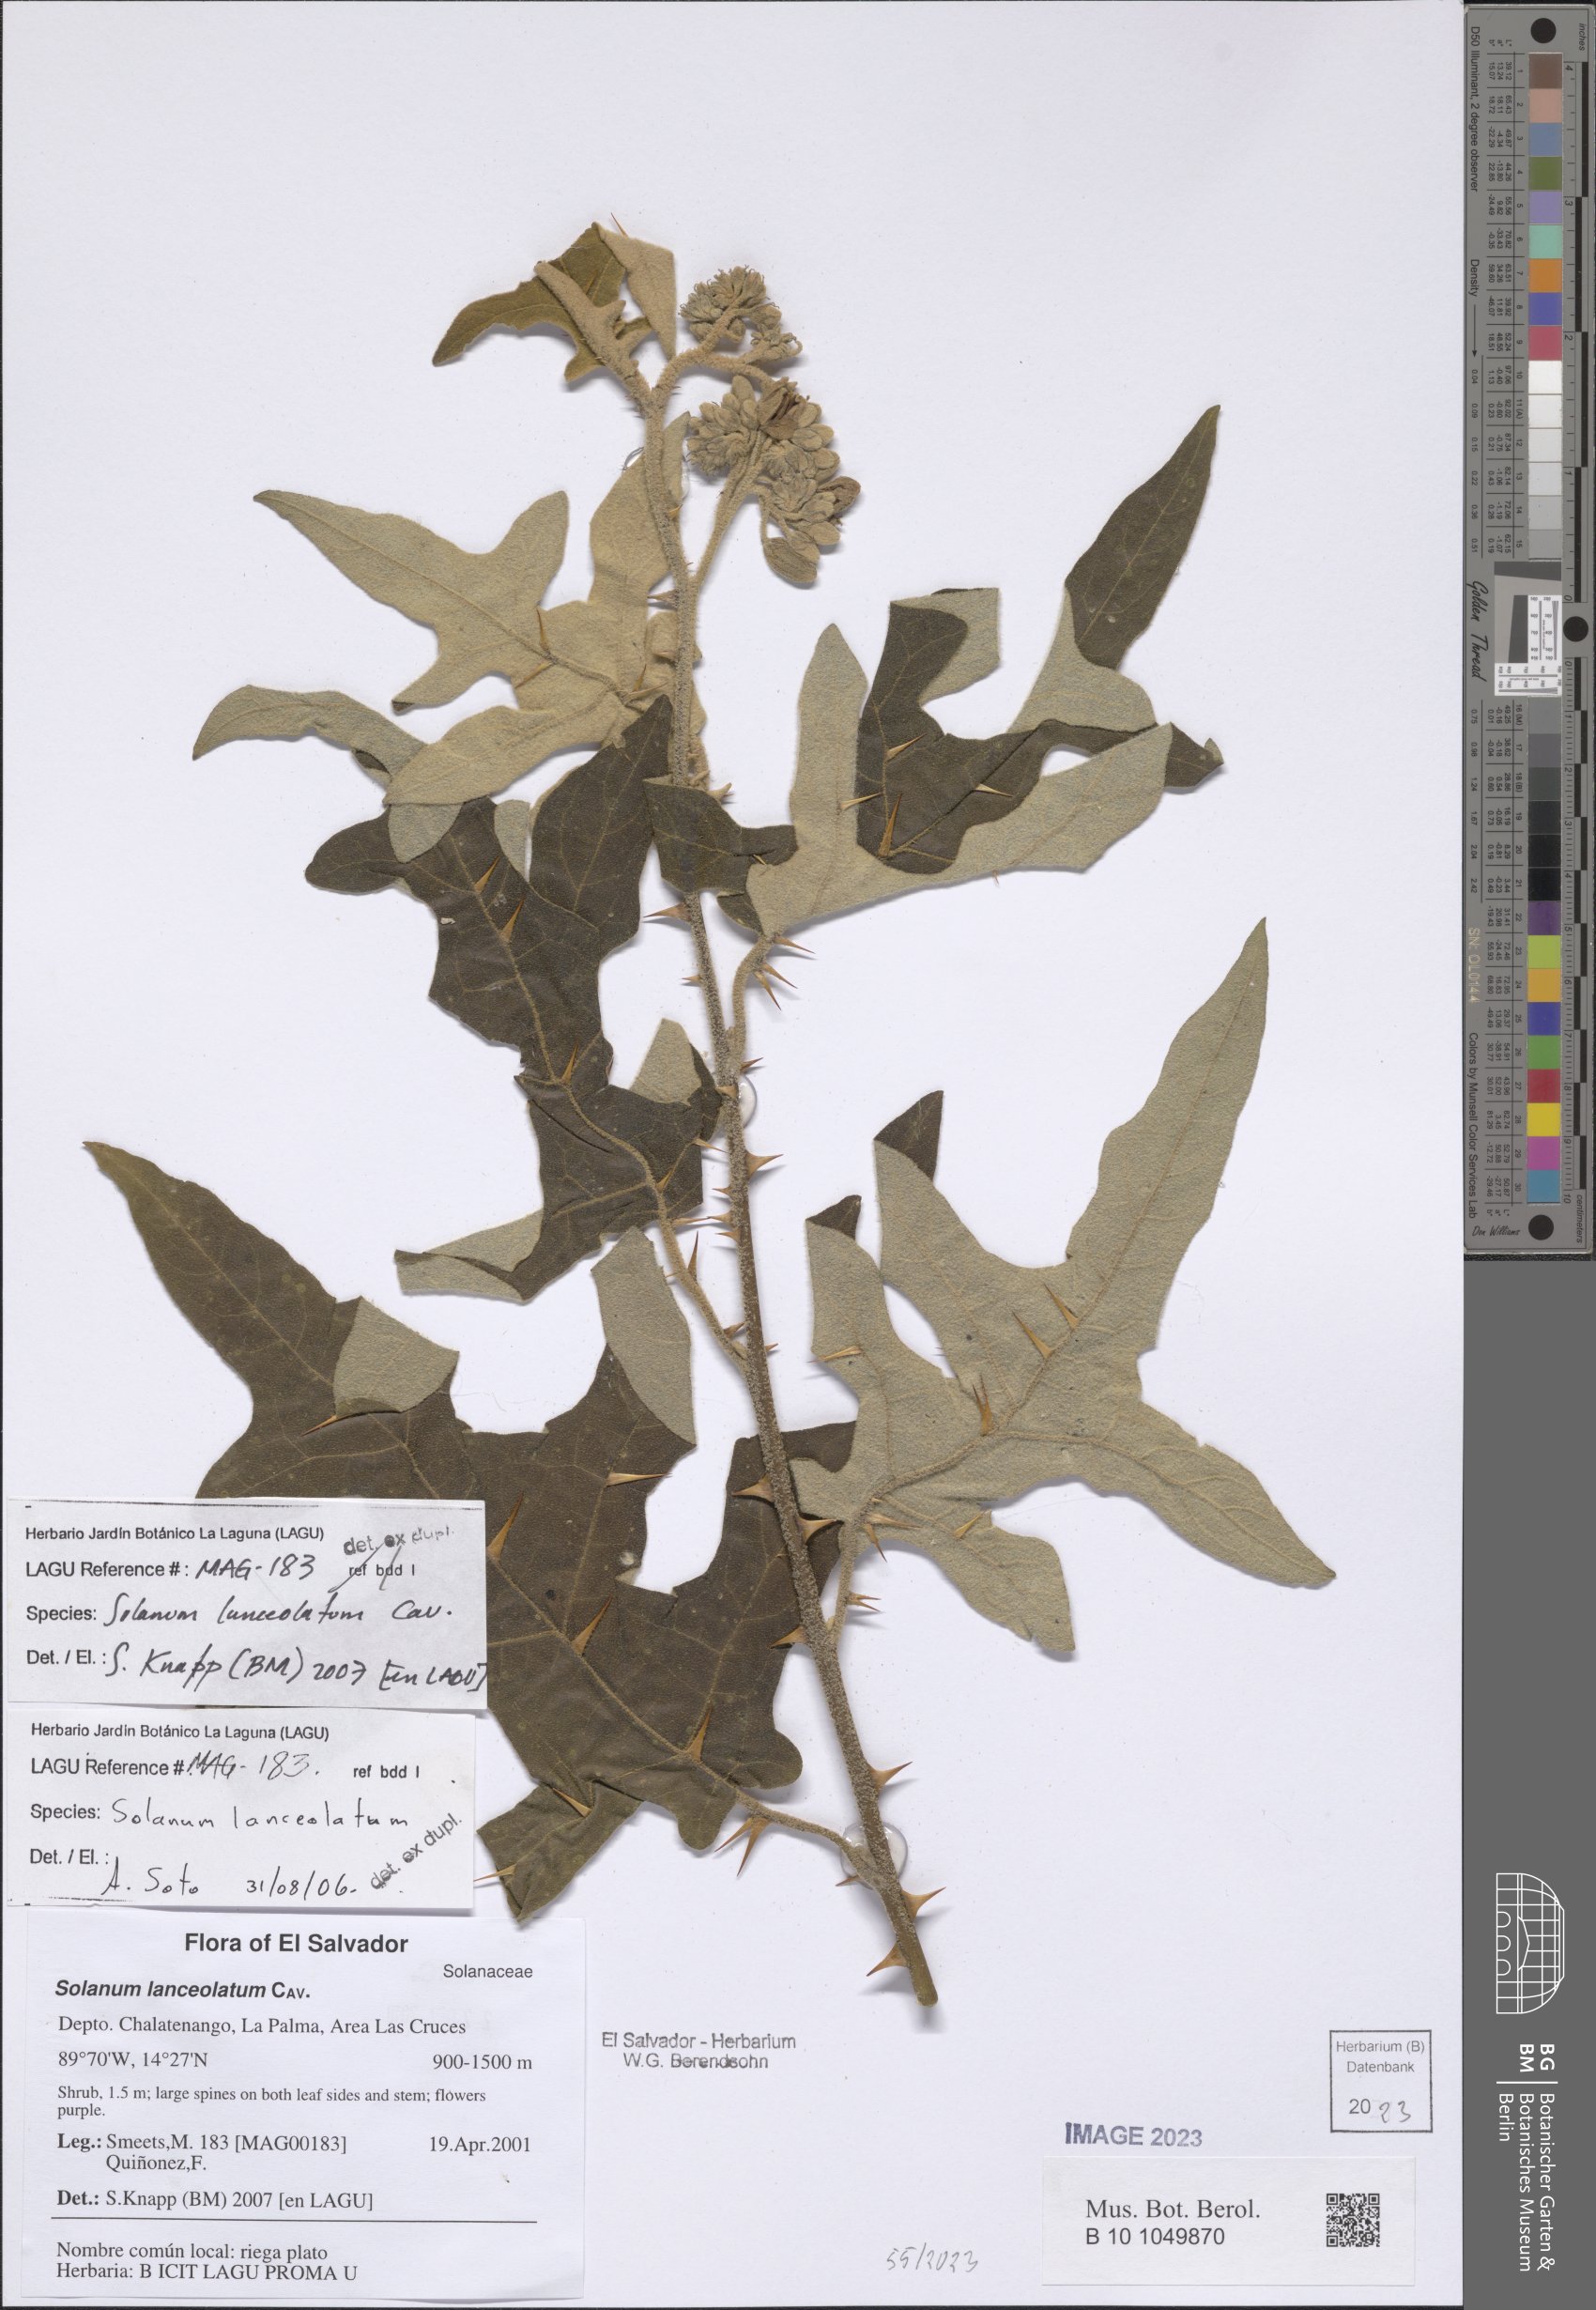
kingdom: Plantae
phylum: Tracheophyta
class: Magnoliopsida
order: Solanales
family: Solanaceae
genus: Solanum
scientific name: Solanum lanceolatum
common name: Orangeberry nightshade
